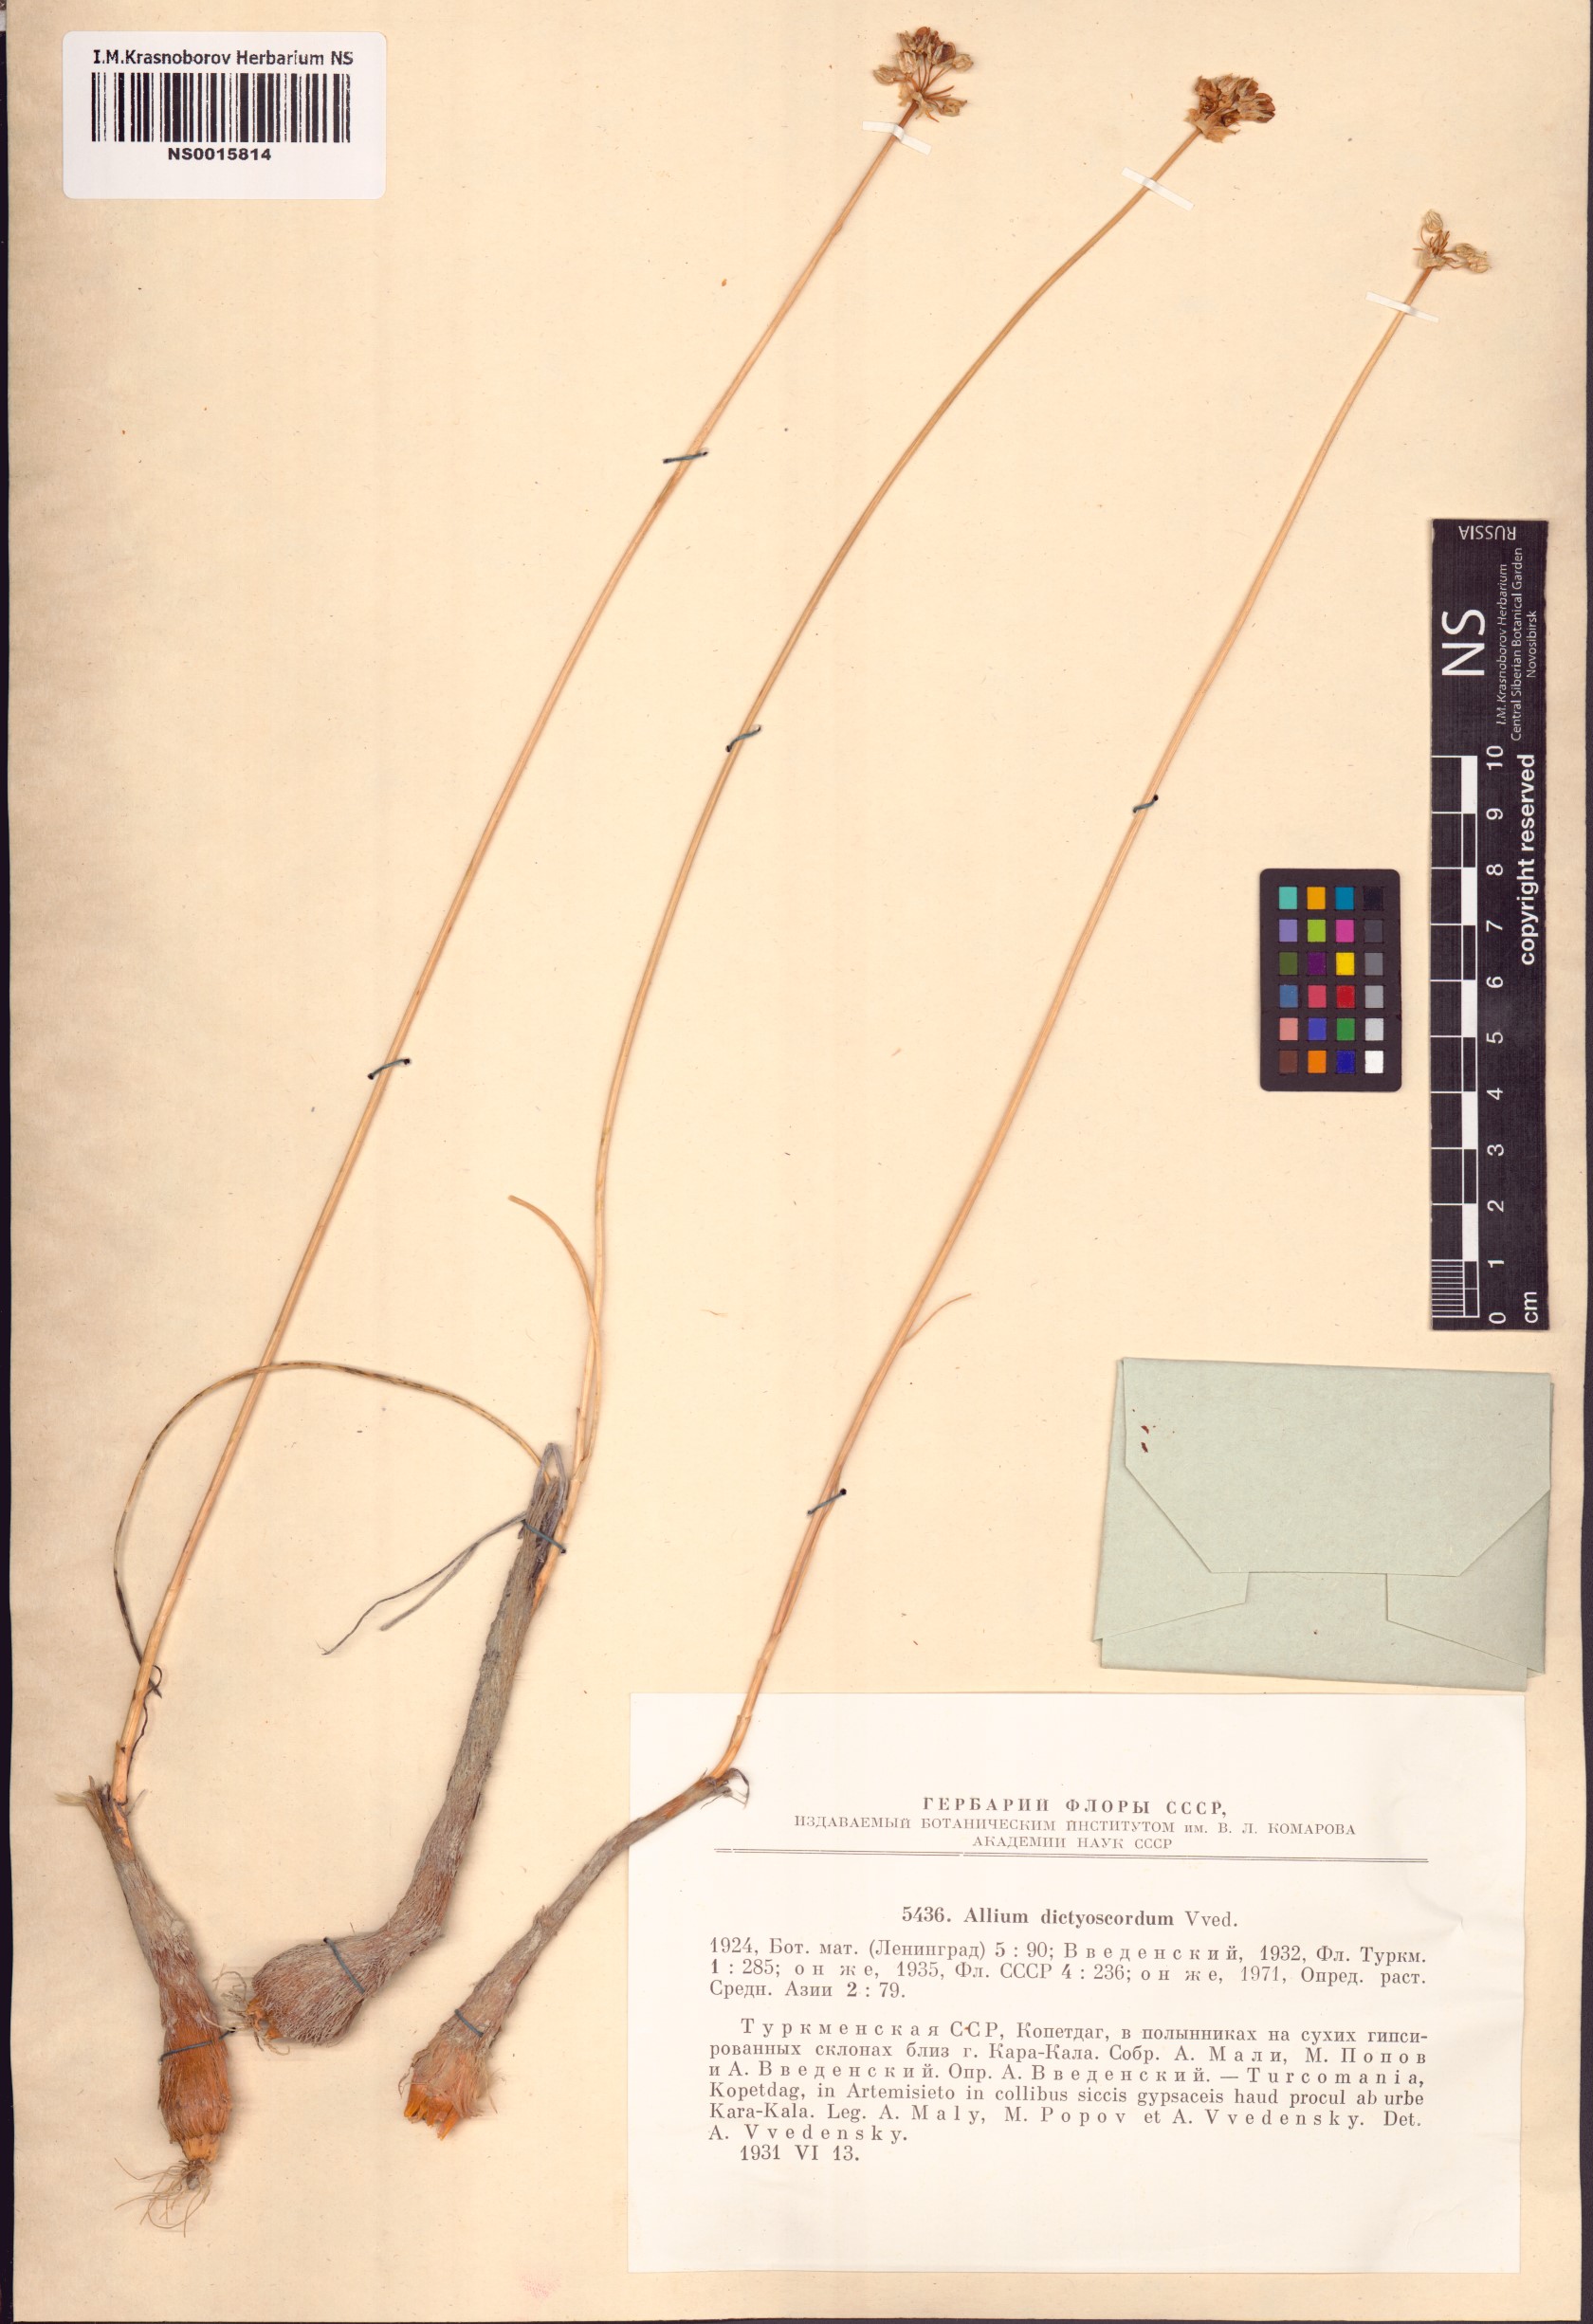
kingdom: Plantae
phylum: Tracheophyta
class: Liliopsida
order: Asparagales
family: Amaryllidaceae
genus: Allium
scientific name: Allium dictyoscordum
